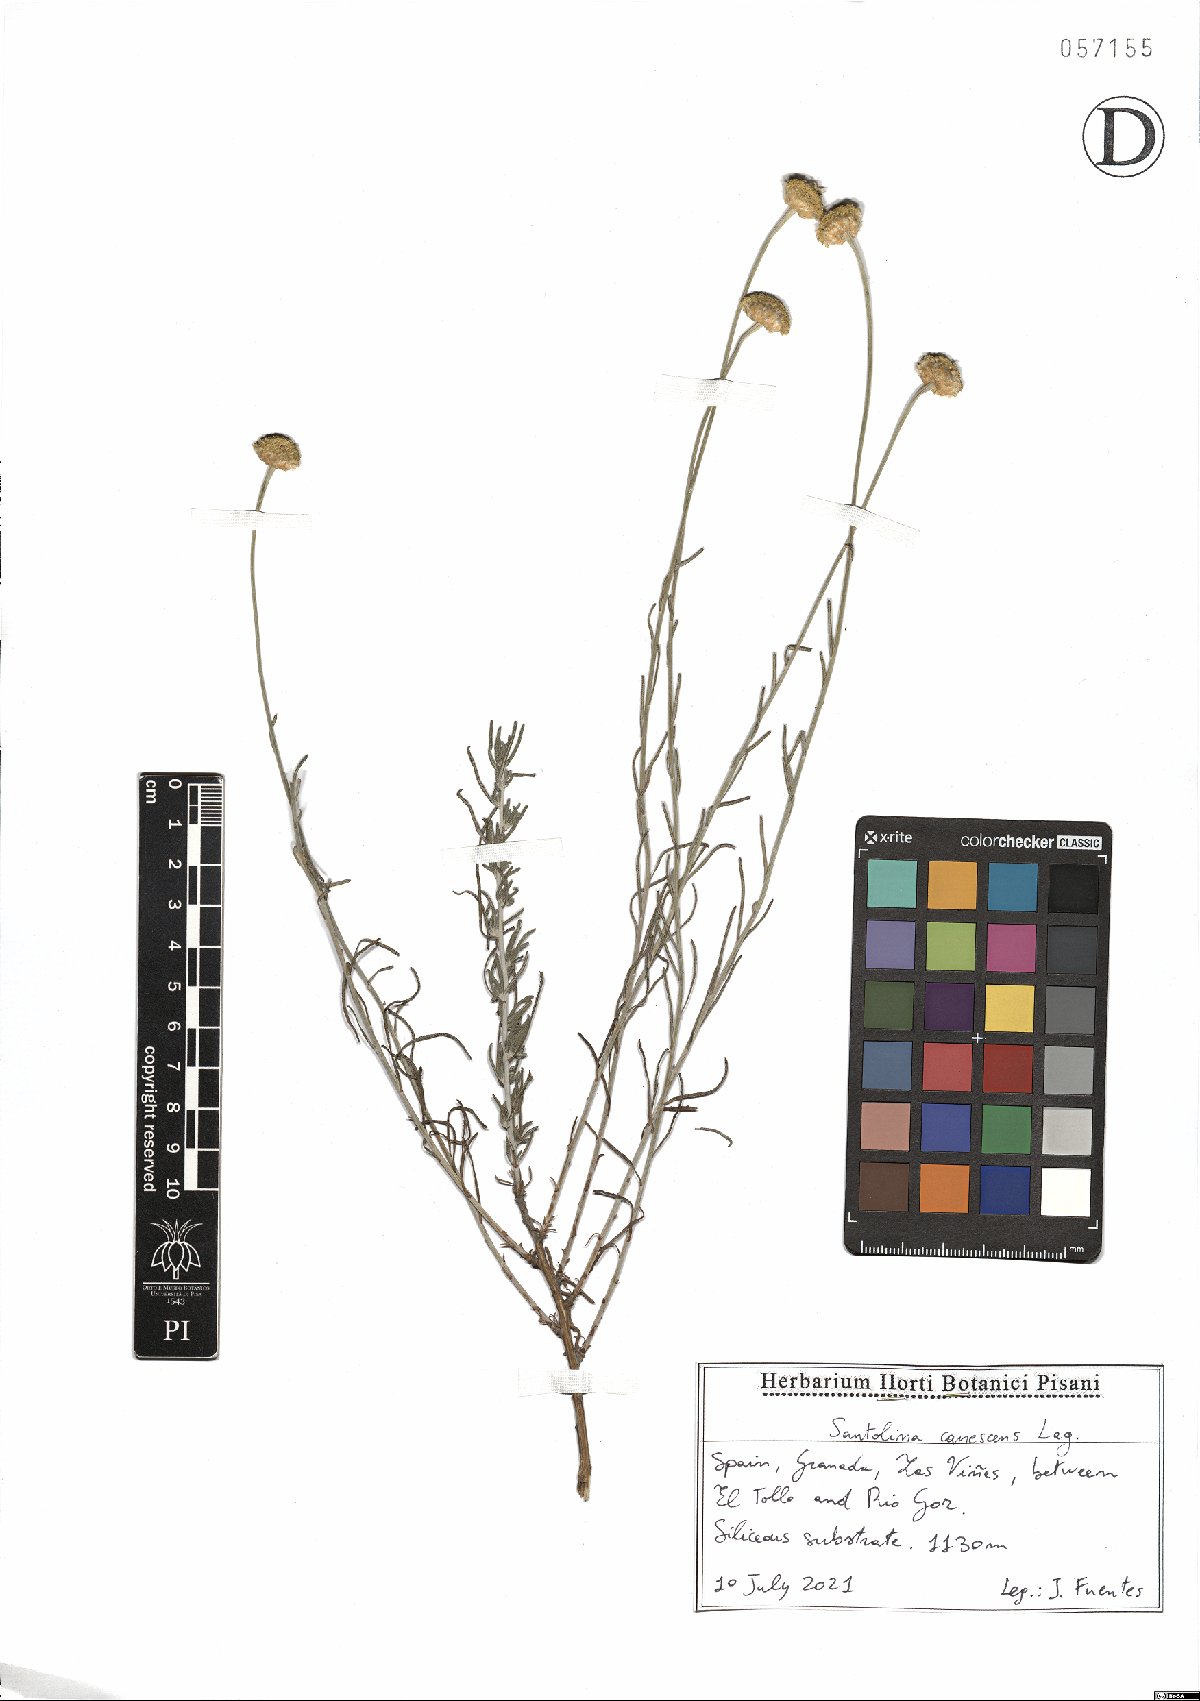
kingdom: Plantae
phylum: Tracheophyta
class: Magnoliopsida
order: Asterales
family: Asteraceae
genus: Santolina
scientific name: Santolina canescens
